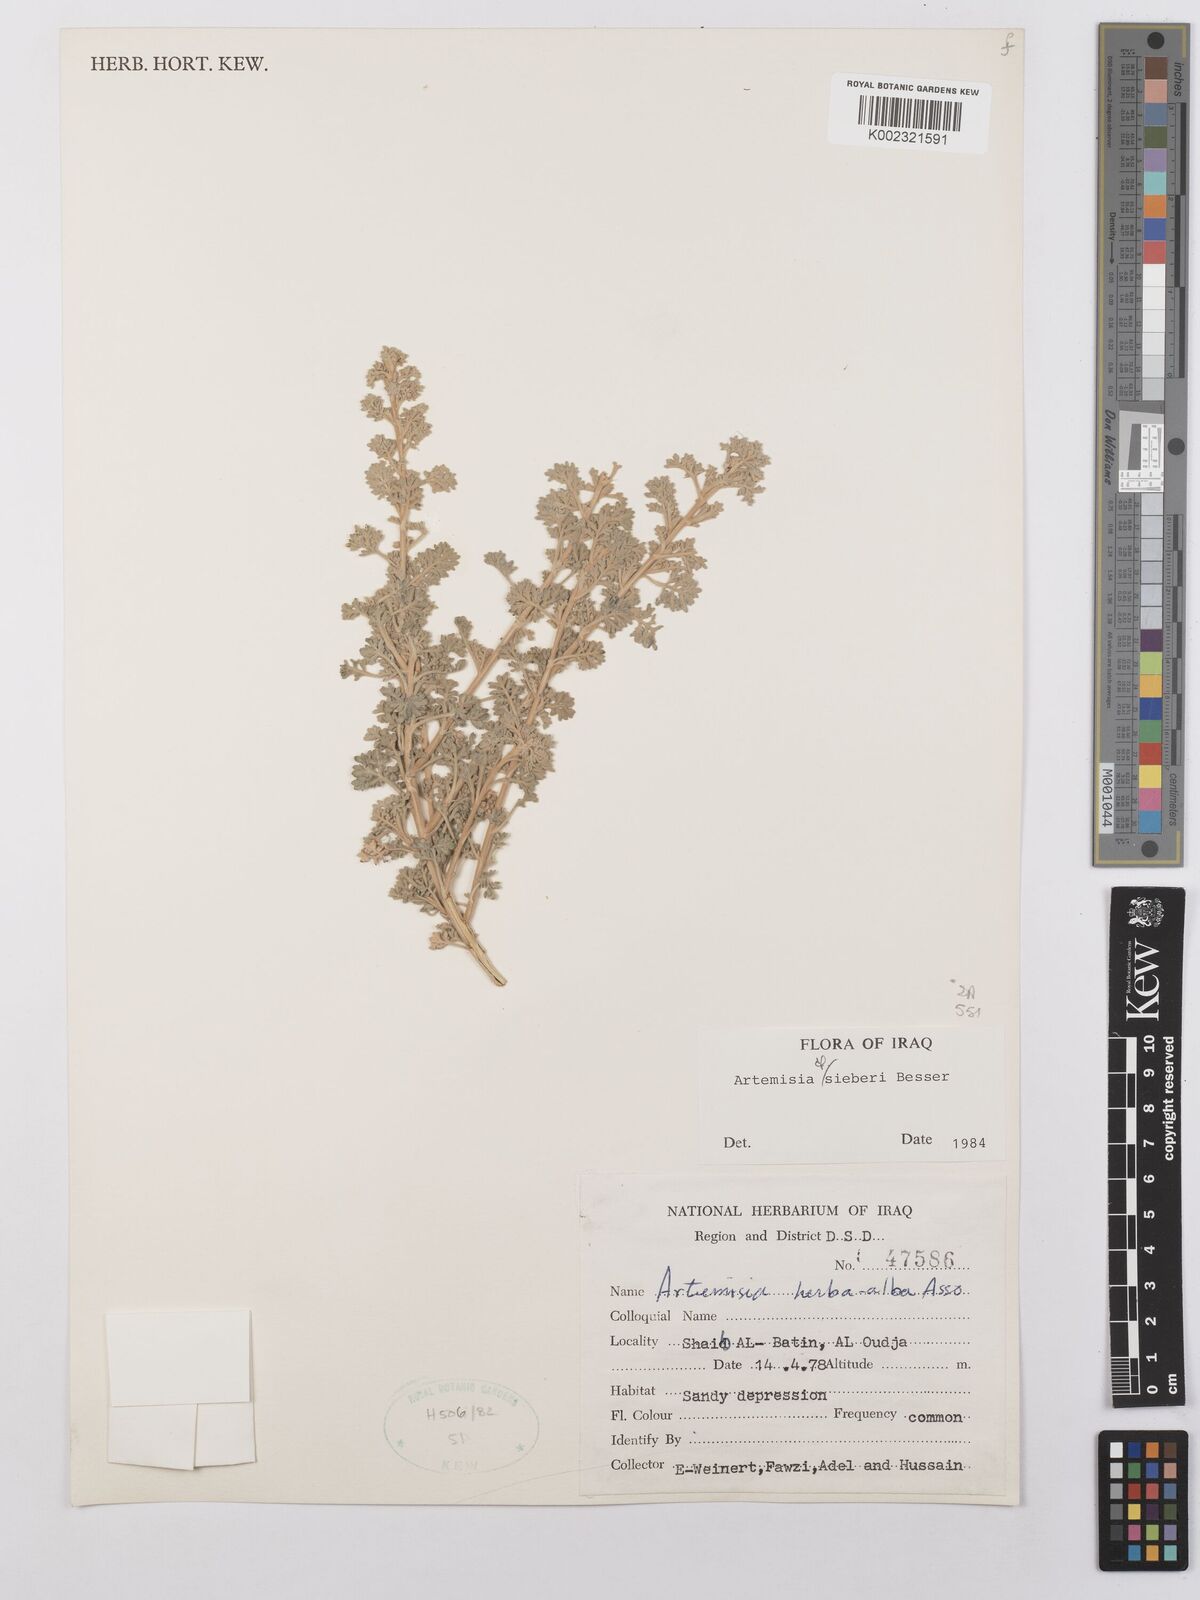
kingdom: Plantae
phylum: Tracheophyta
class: Magnoliopsida
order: Asterales
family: Asteraceae
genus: Artemisia
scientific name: Artemisia sieberi
